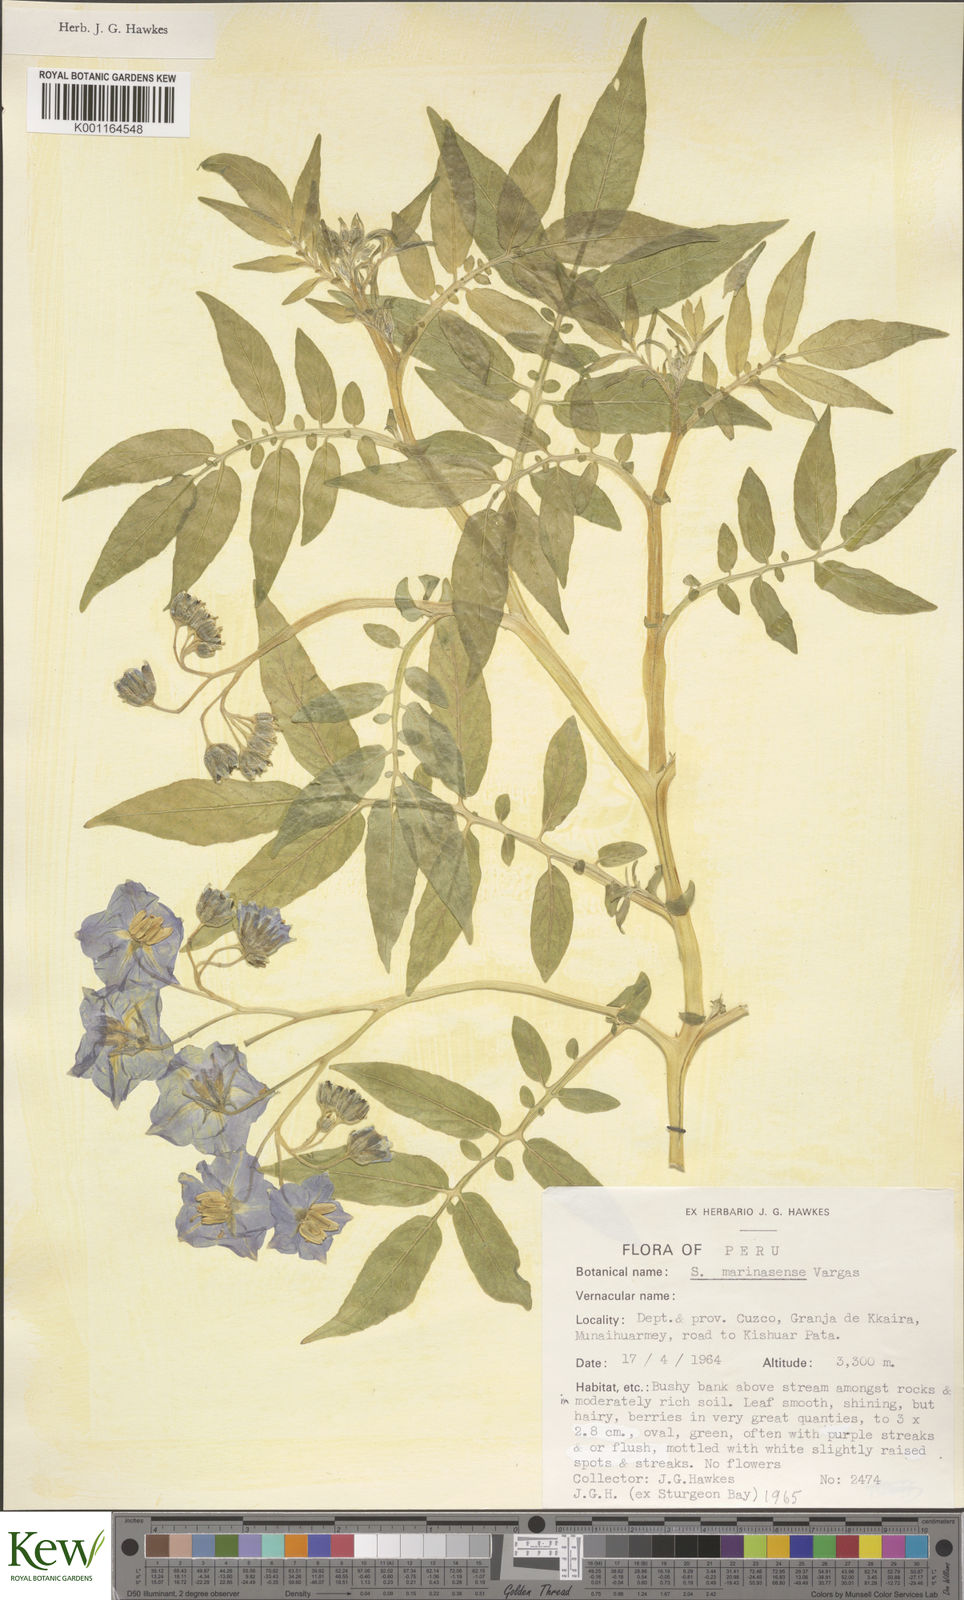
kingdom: Plantae
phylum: Tracheophyta
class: Magnoliopsida
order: Solanales
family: Solanaceae
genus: Solanum
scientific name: Solanum candolleanum
